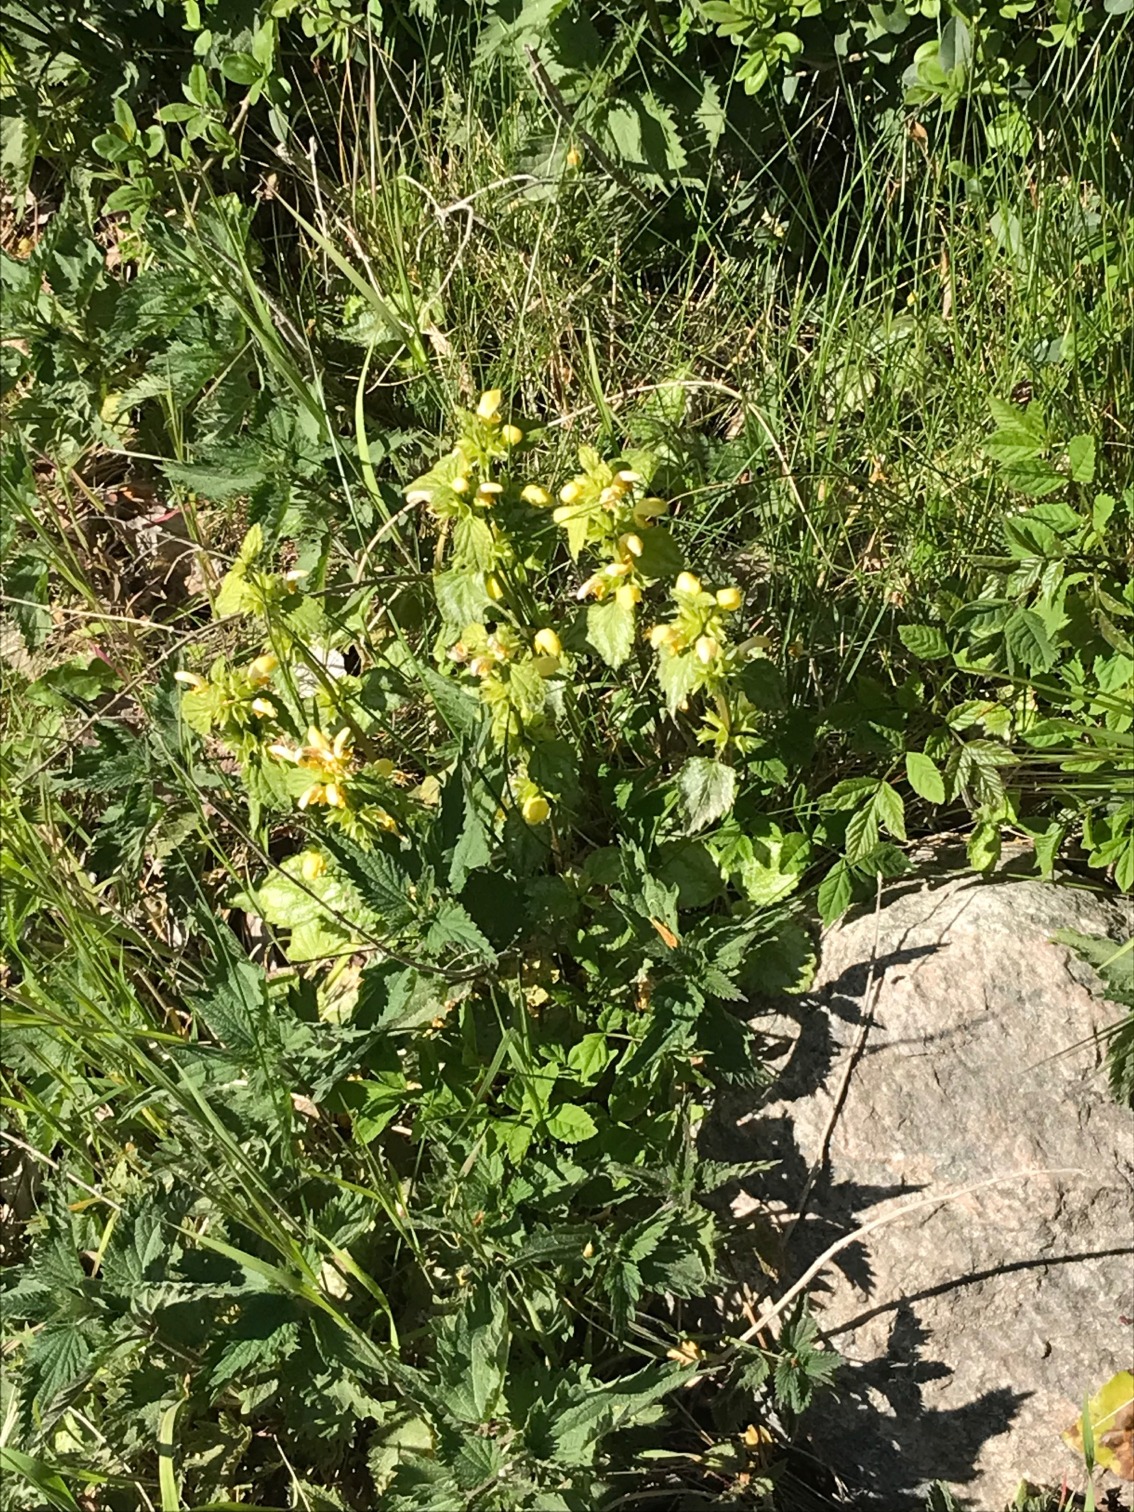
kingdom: Plantae
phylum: Tracheophyta
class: Magnoliopsida
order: Lamiales
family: Lamiaceae
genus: Lamium
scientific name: Lamium galeobdolon
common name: Have-guldnælde
